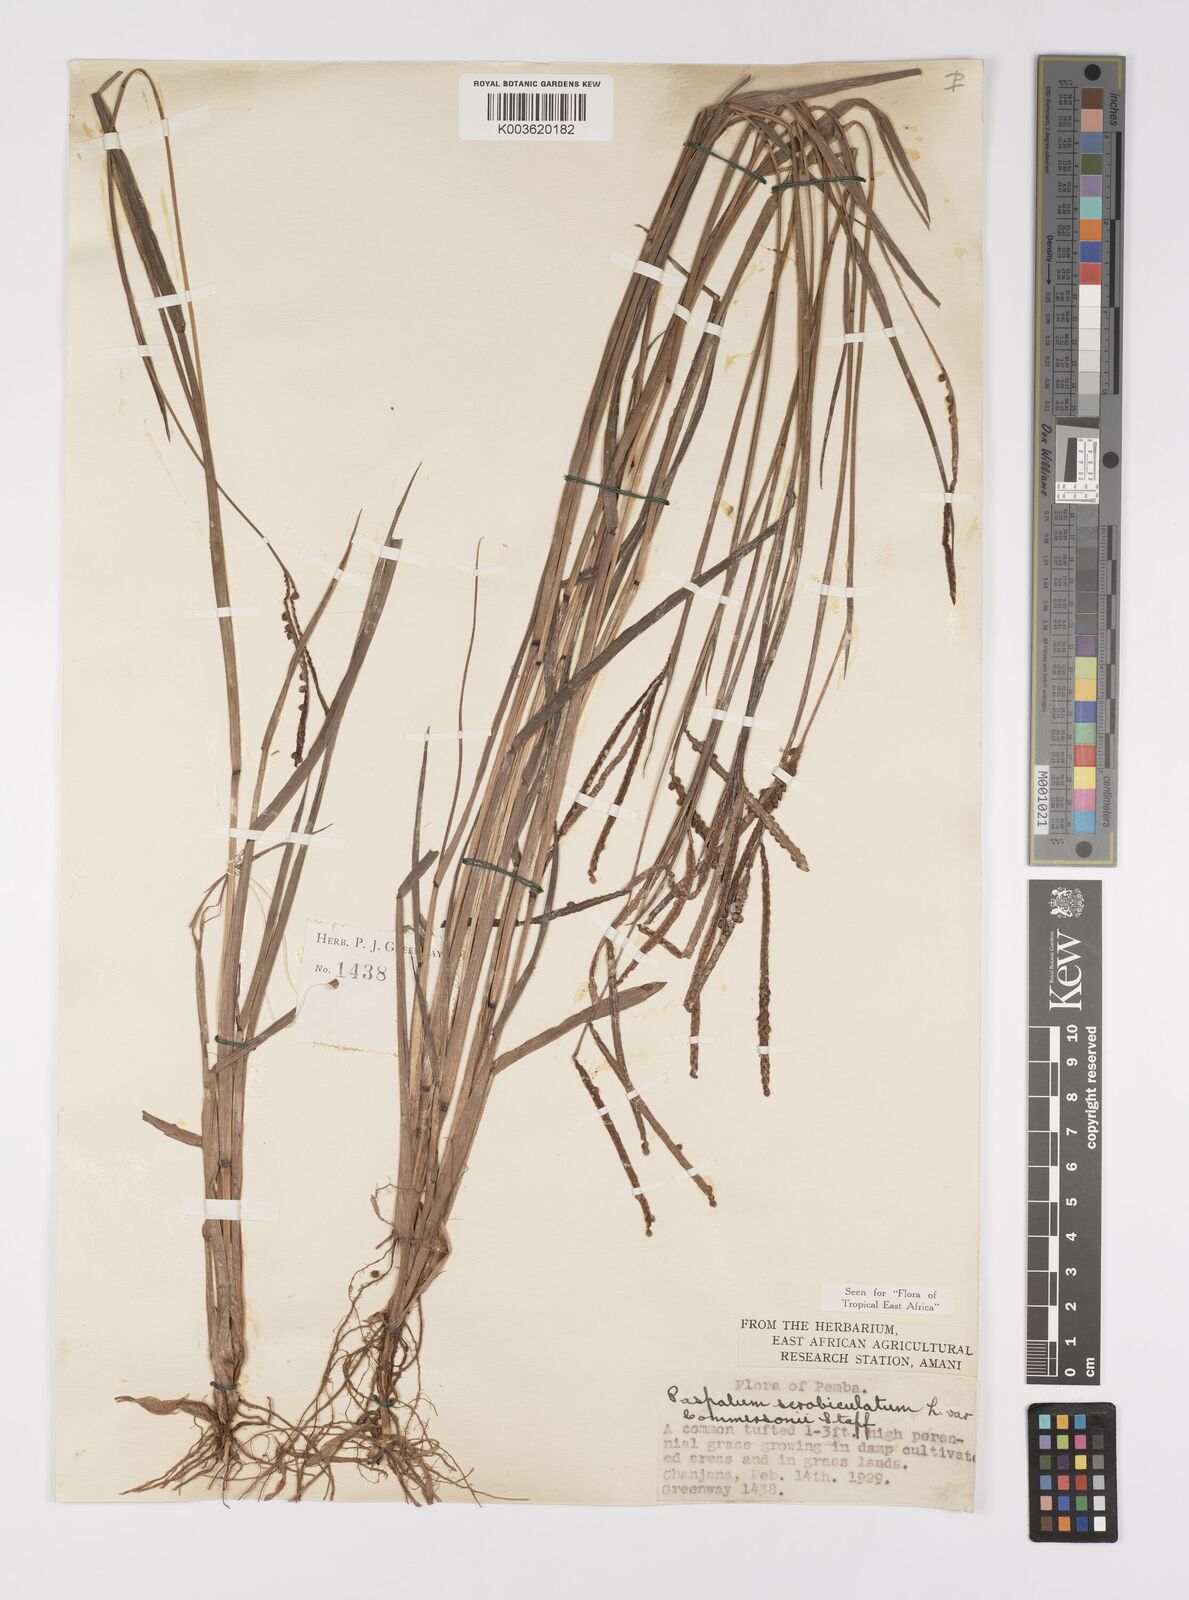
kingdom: Plantae
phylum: Tracheophyta
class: Liliopsida
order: Poales
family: Poaceae
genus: Paspalum
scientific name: Paspalum scrobiculatum
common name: Kodo millet
